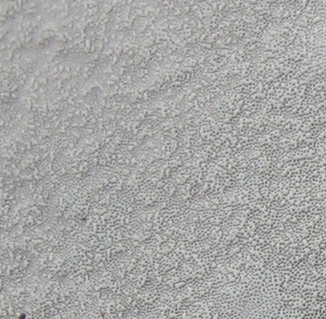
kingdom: Fungi
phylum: Basidiomycota
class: Agaricomycetes
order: Polyporales
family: Polyporaceae
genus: Ganoderma
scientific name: Ganoderma applanatum
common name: flad lakporesvamp
